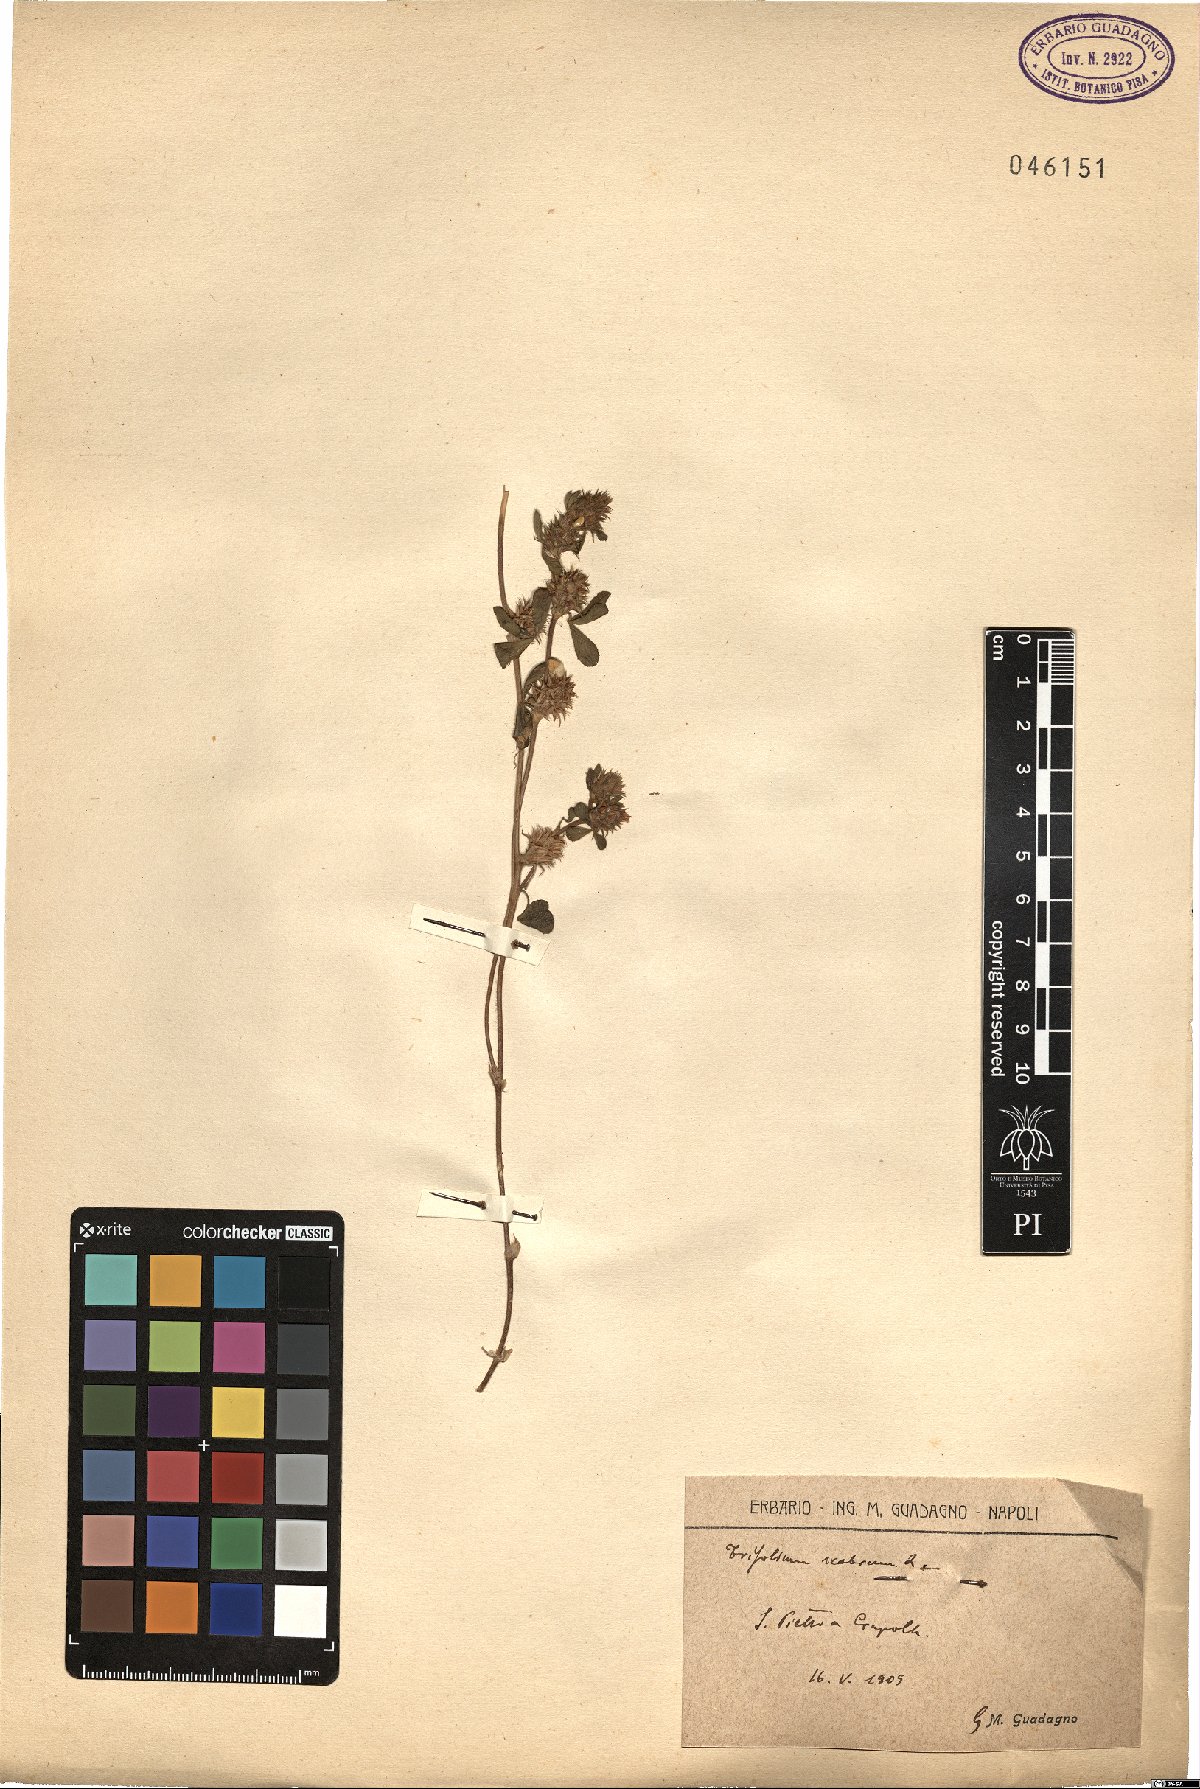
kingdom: Plantae
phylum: Tracheophyta
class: Magnoliopsida
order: Fabales
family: Fabaceae
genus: Trifolium
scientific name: Trifolium scabrum
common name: Rough clover
